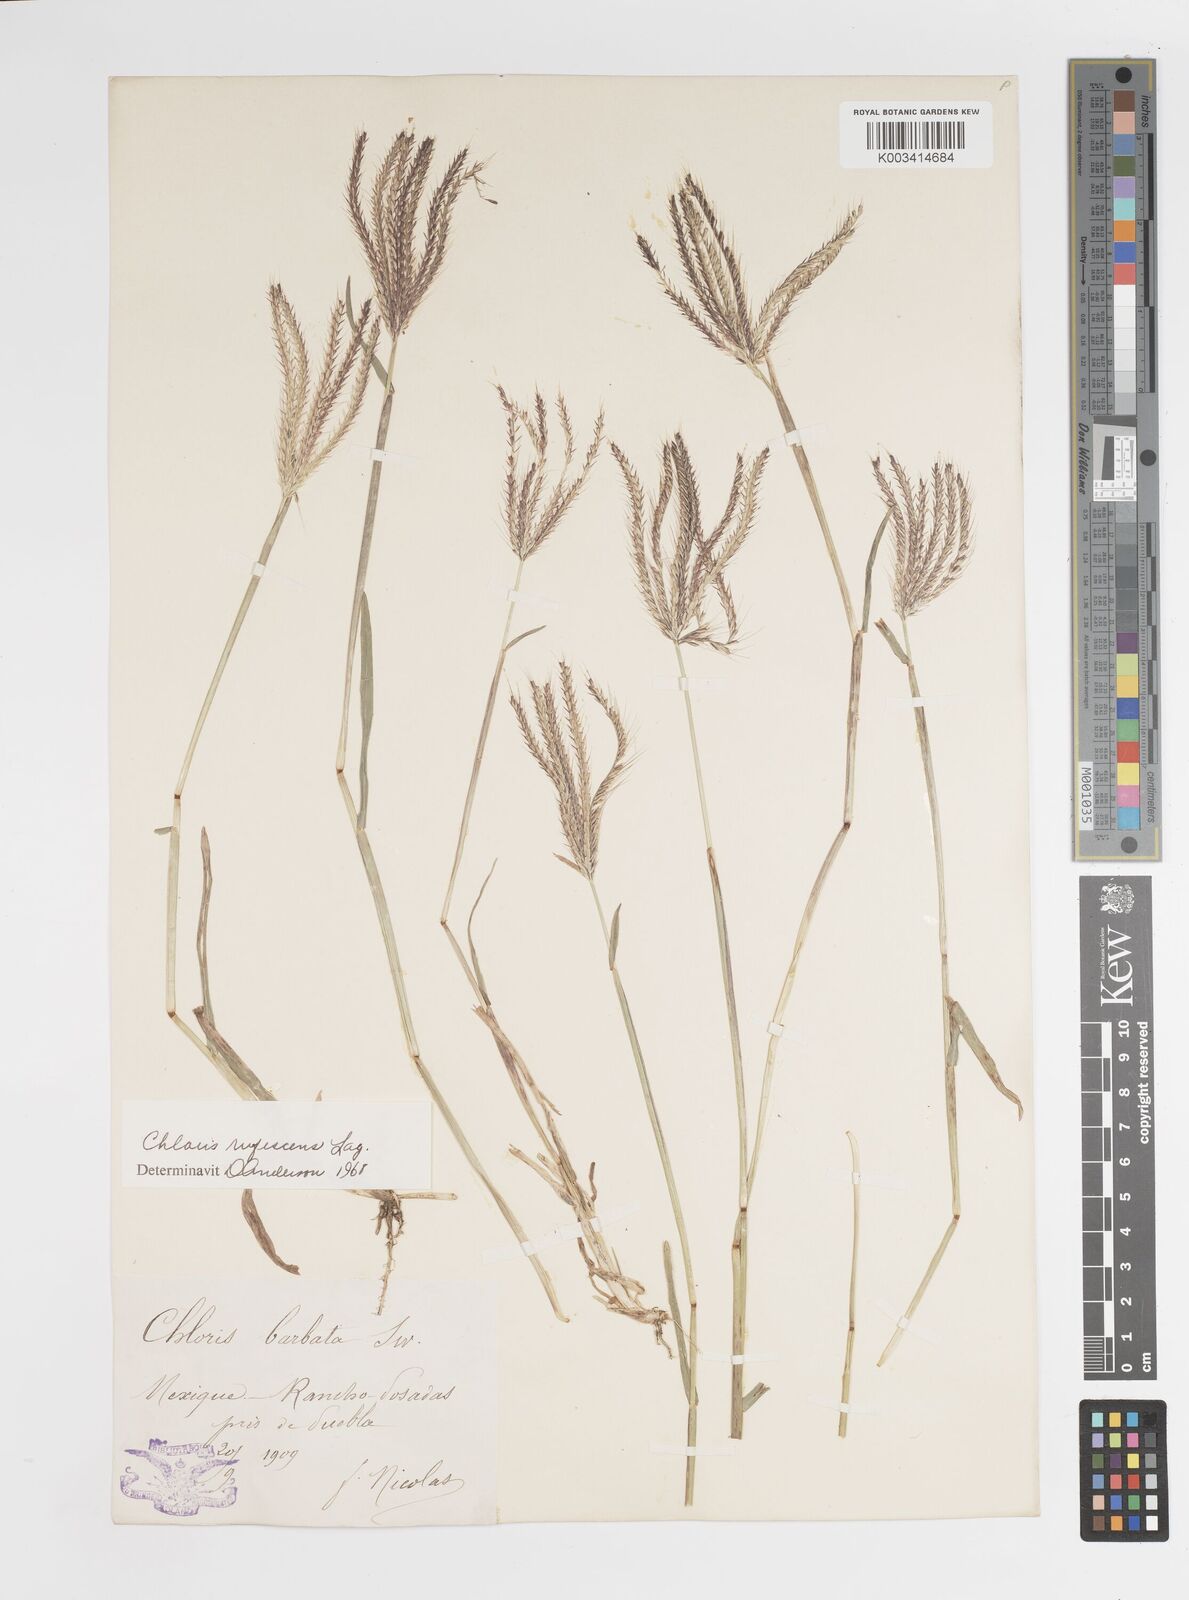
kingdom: Plantae
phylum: Tracheophyta
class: Liliopsida
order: Poales
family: Poaceae
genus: Chloris
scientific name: Chloris rufescens
